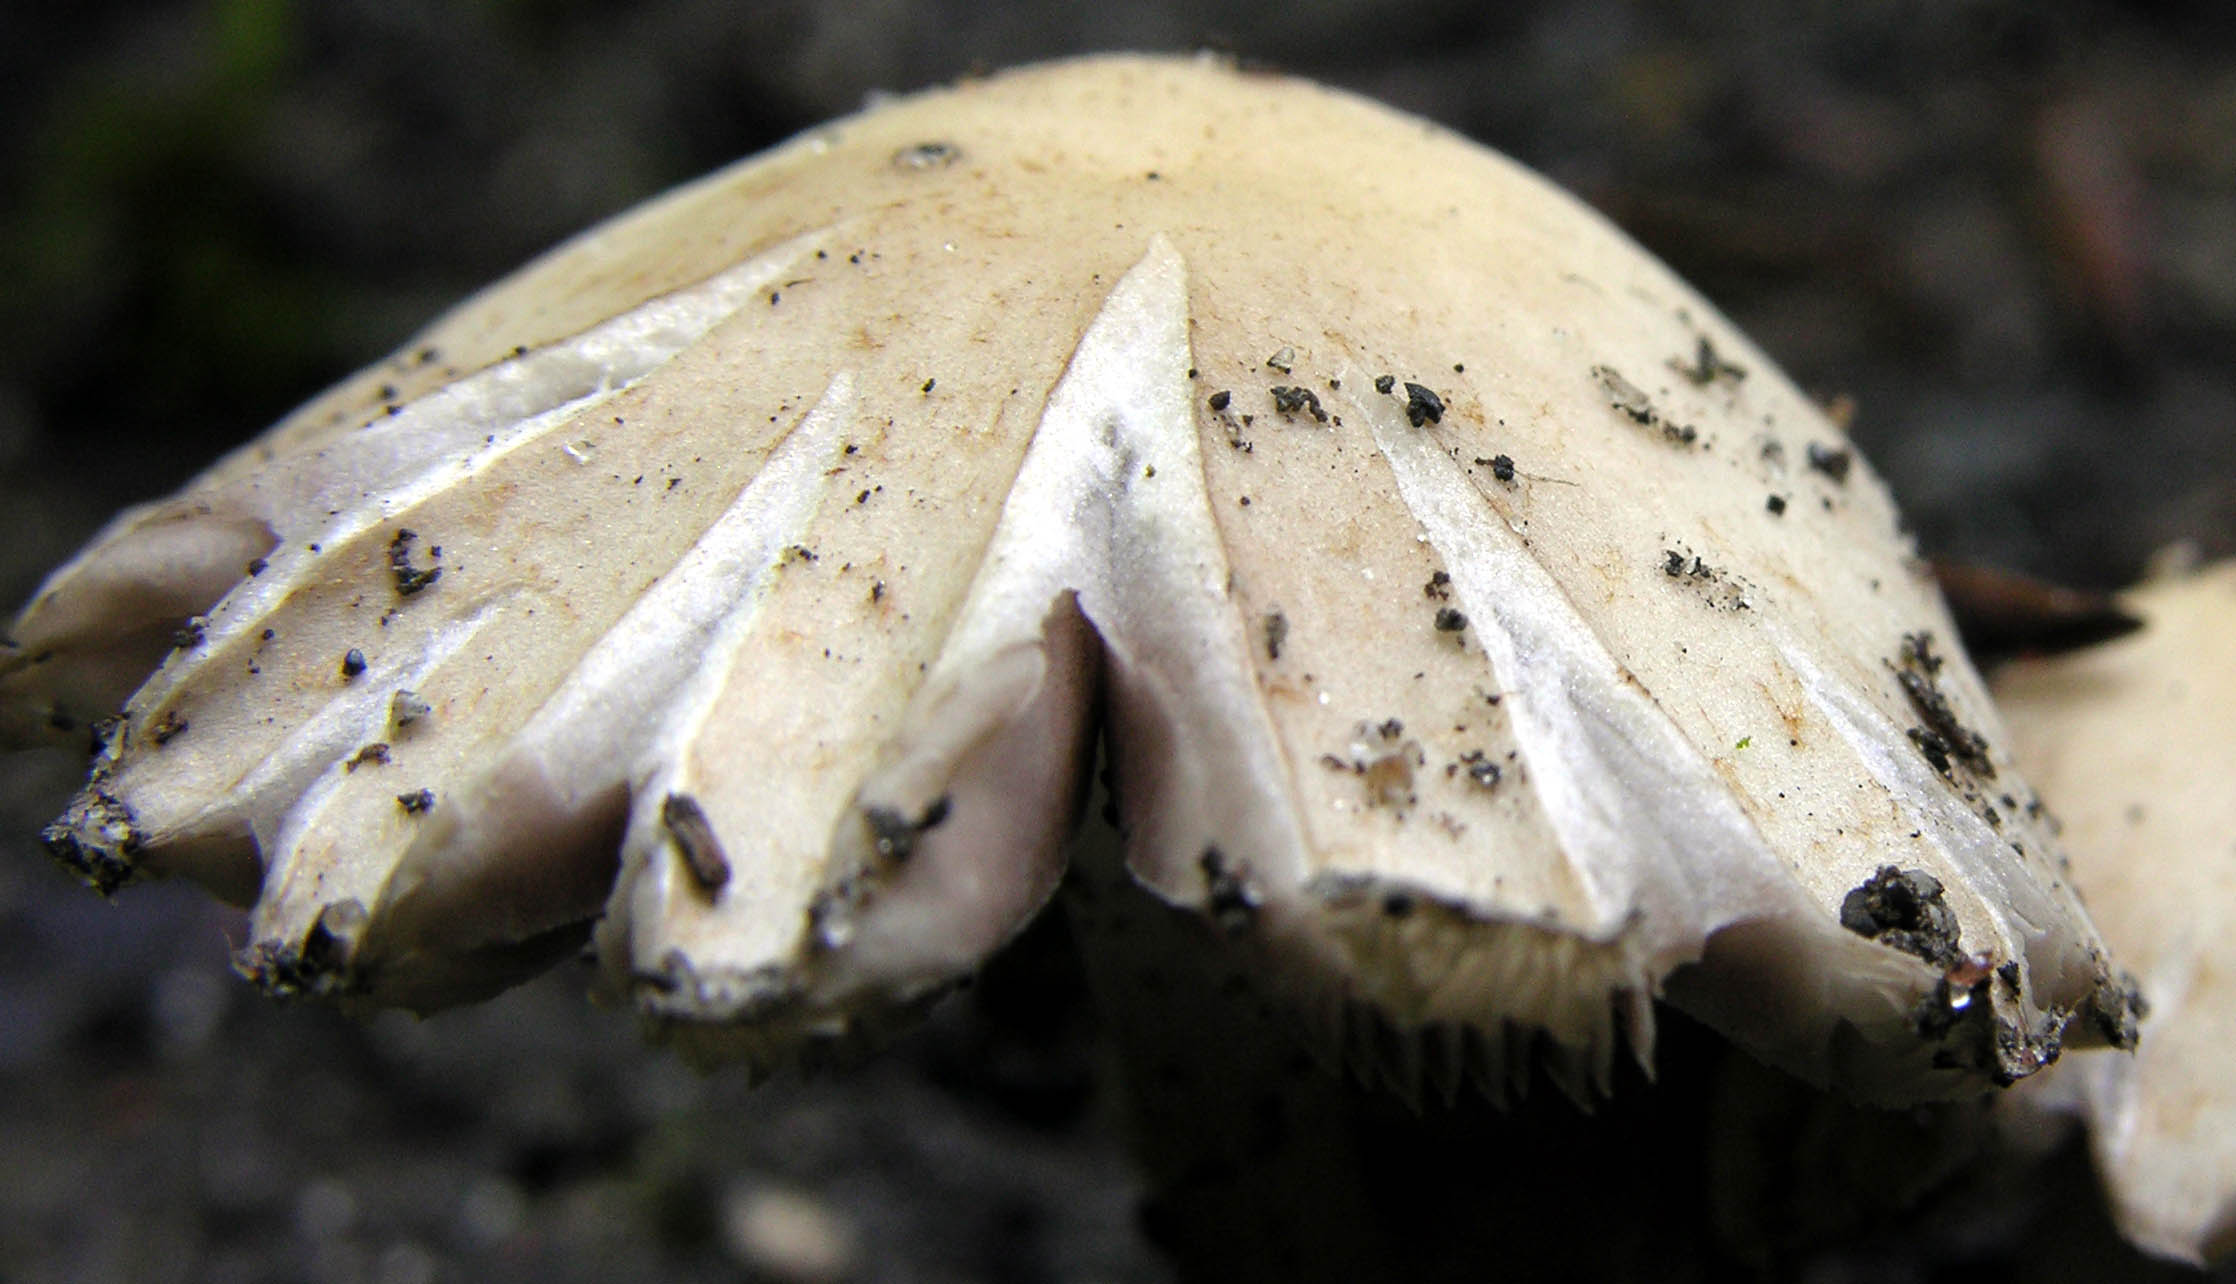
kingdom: Fungi
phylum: Basidiomycota
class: Agaricomycetes
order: Agaricales
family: Psathyrellaceae
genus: Candolleomyces
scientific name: Candolleomyces candolleanus
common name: Candolles mørkhat
